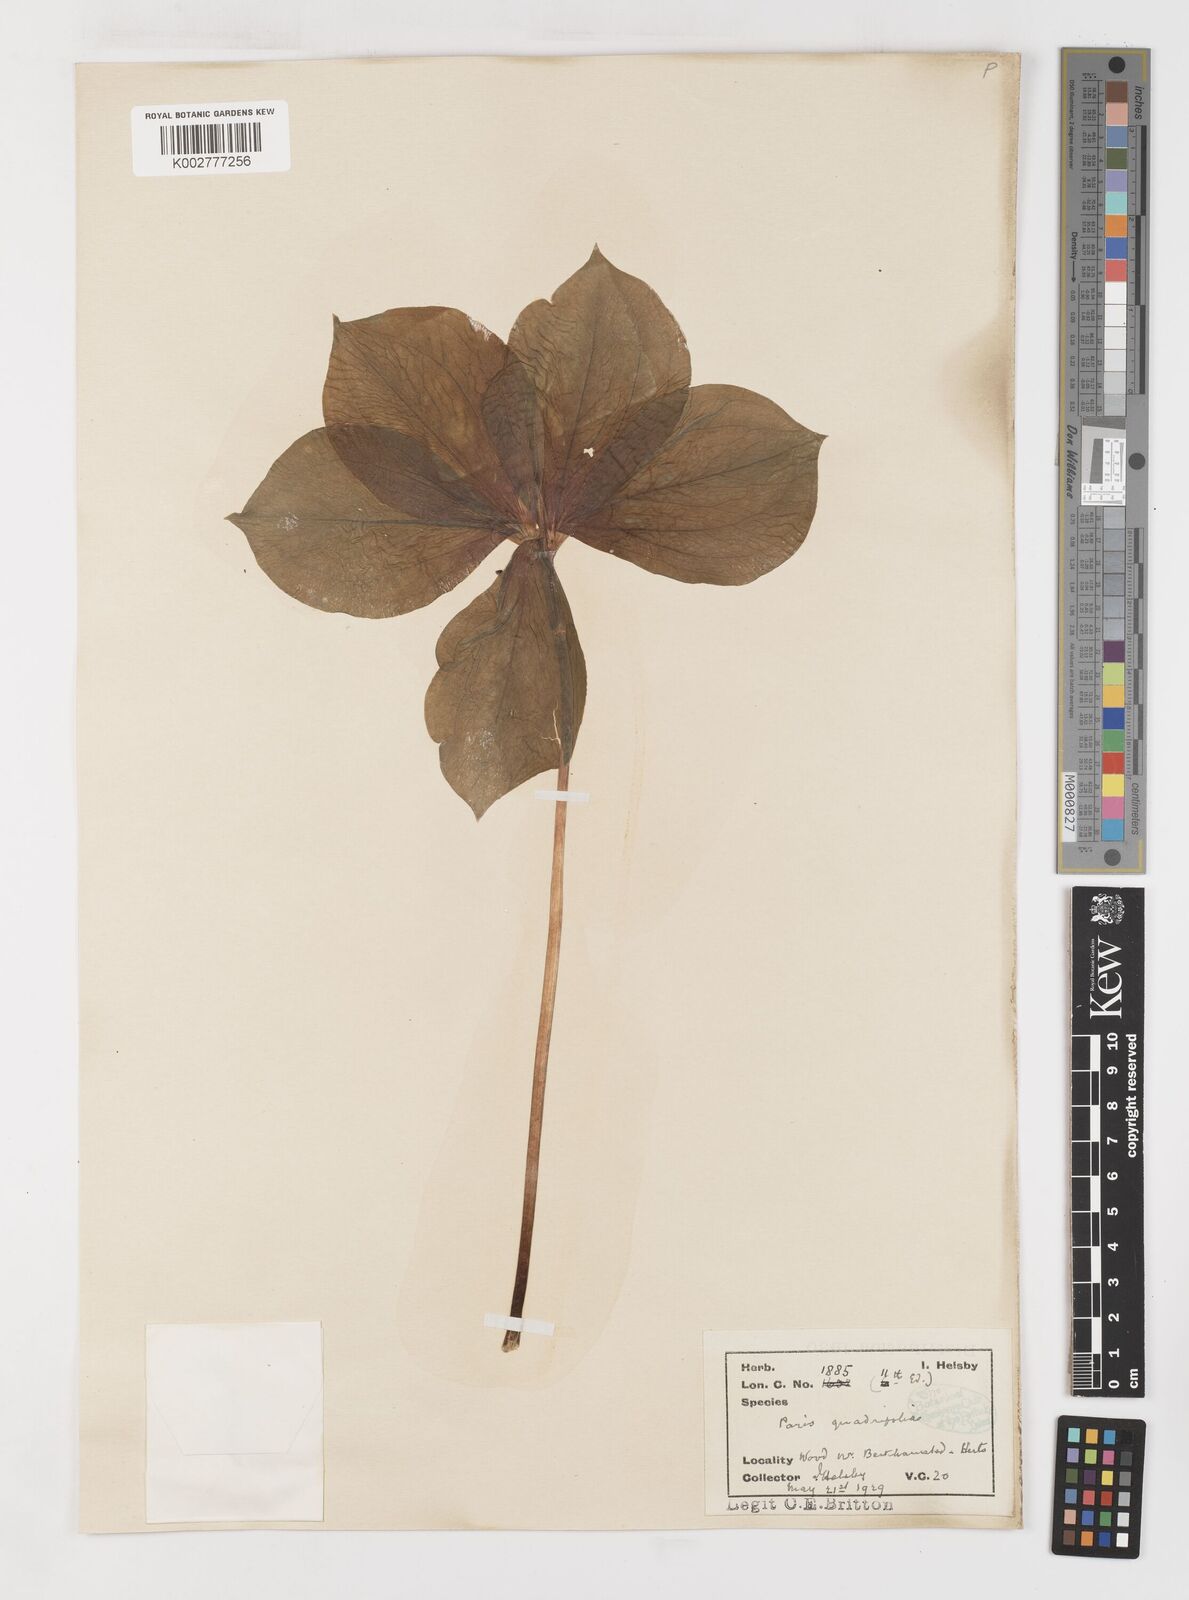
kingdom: Plantae
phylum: Tracheophyta
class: Liliopsida
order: Liliales
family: Melanthiaceae
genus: Paris
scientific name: Paris
